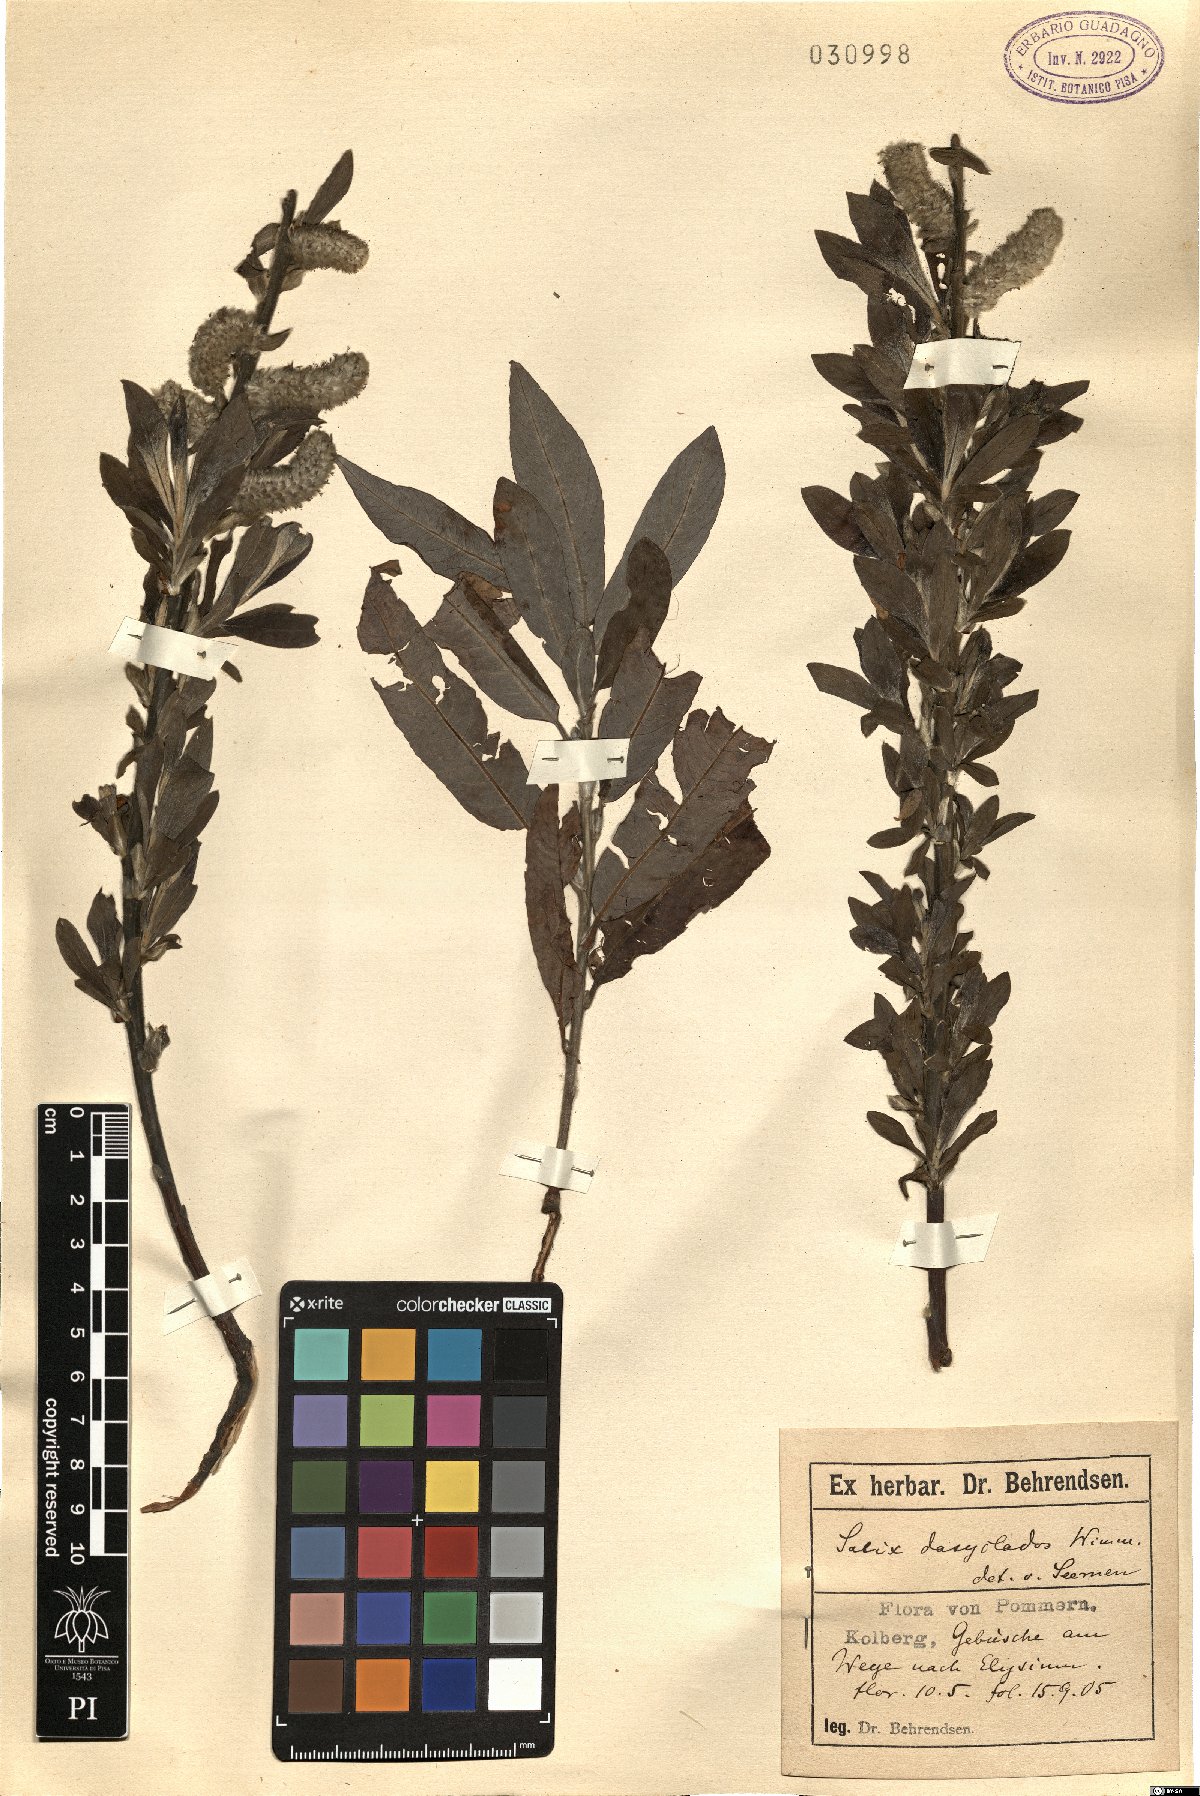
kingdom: Plantae
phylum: Tracheophyta
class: Magnoliopsida
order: Malpighiales
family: Salicaceae
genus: Salix
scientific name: Salix gmelinii
